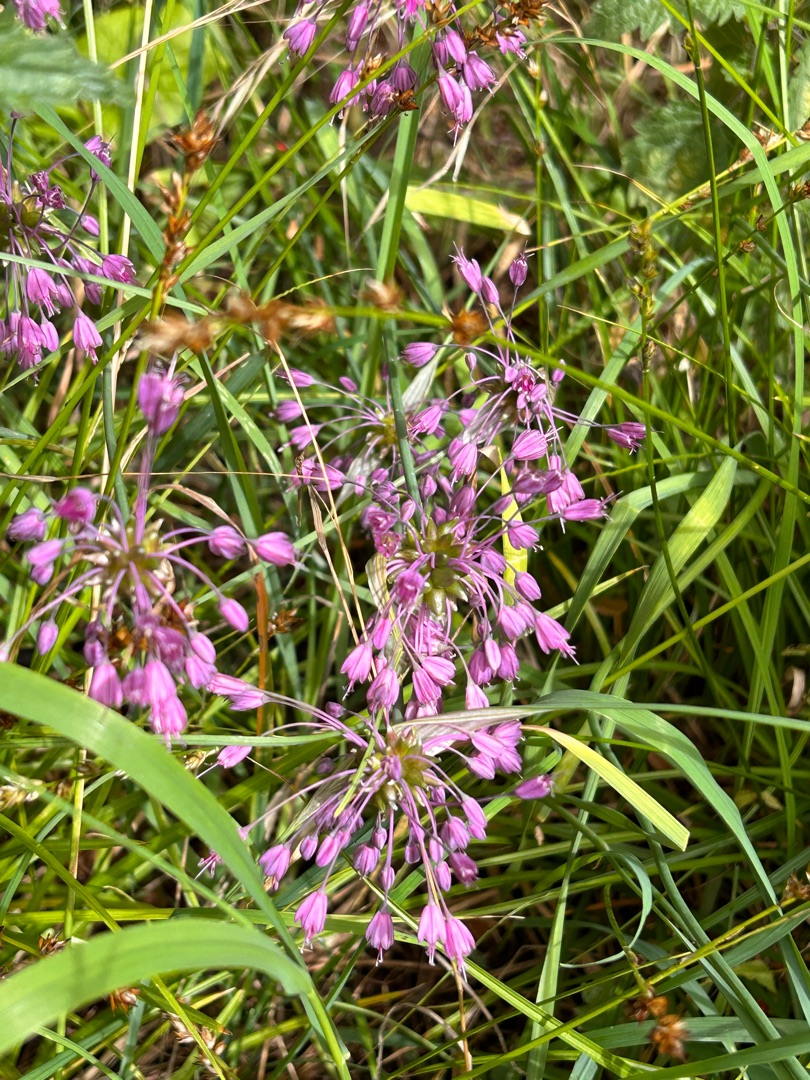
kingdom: Plantae
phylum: Tracheophyta
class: Liliopsida
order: Asparagales
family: Amaryllidaceae
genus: Allium
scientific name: Allium carinatum
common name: Kølet løg
